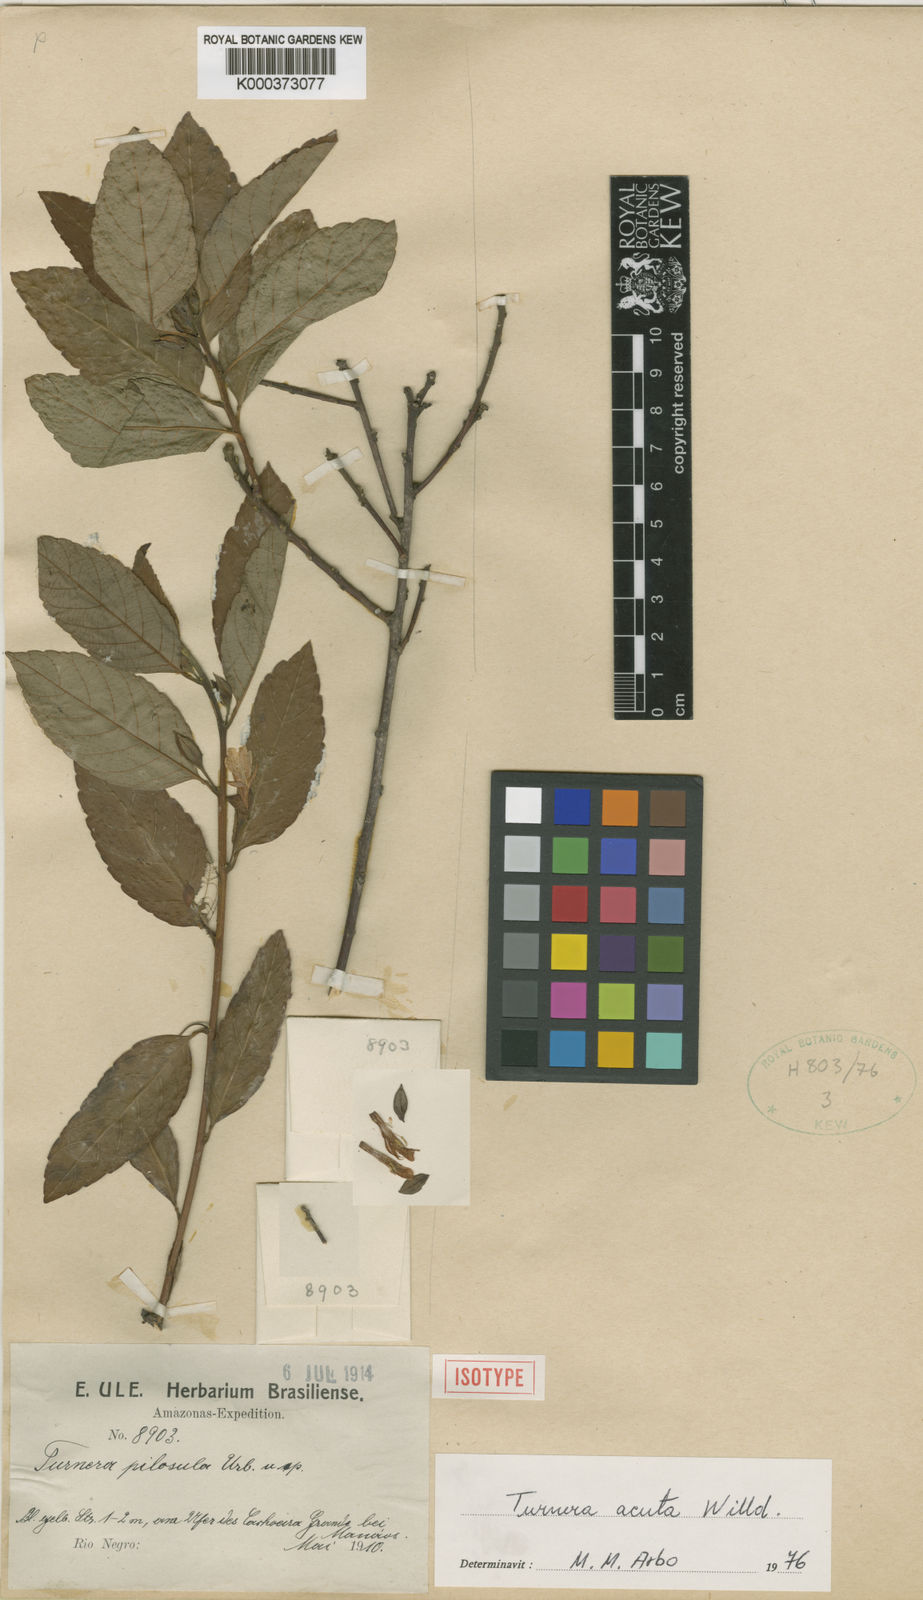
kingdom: Plantae
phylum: Tracheophyta
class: Magnoliopsida
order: Malpighiales
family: Turneraceae
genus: Turnera
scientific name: Turnera acuta
